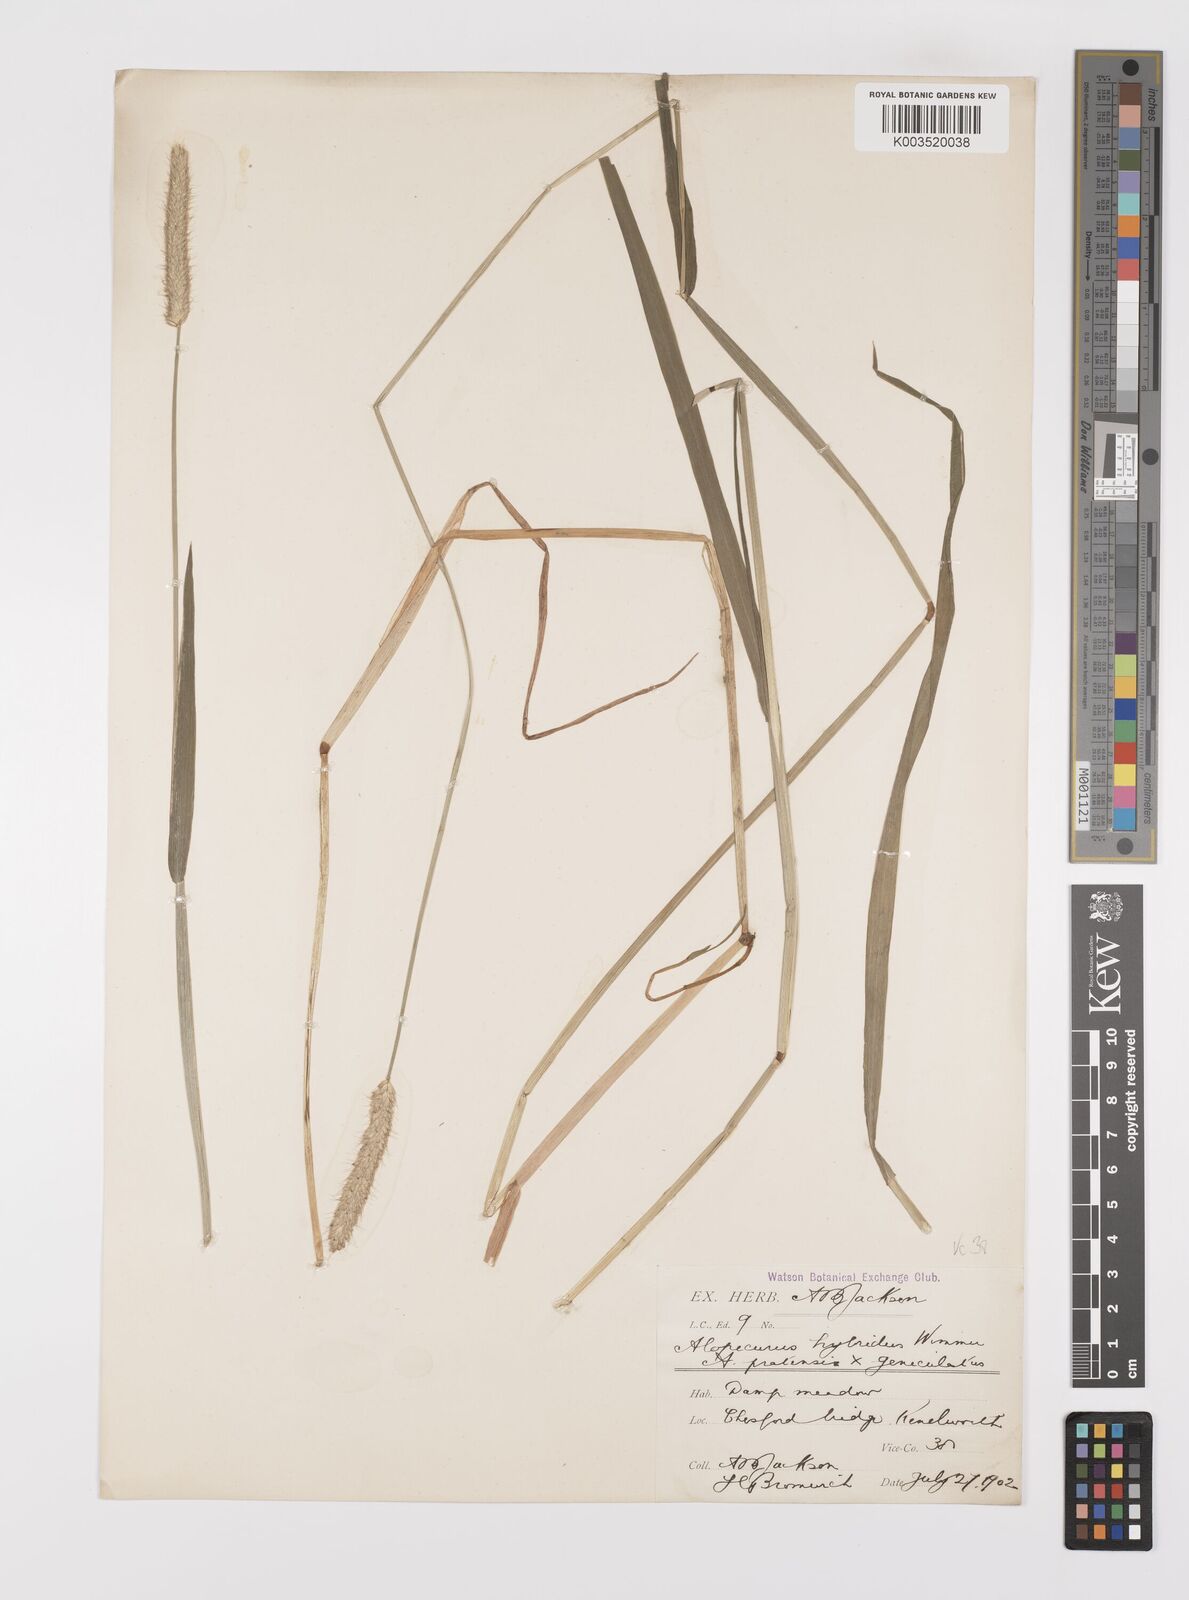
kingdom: Plantae
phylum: Tracheophyta
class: Liliopsida
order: Poales
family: Poaceae
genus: Alopecurus
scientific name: Alopecurus brachystylus
